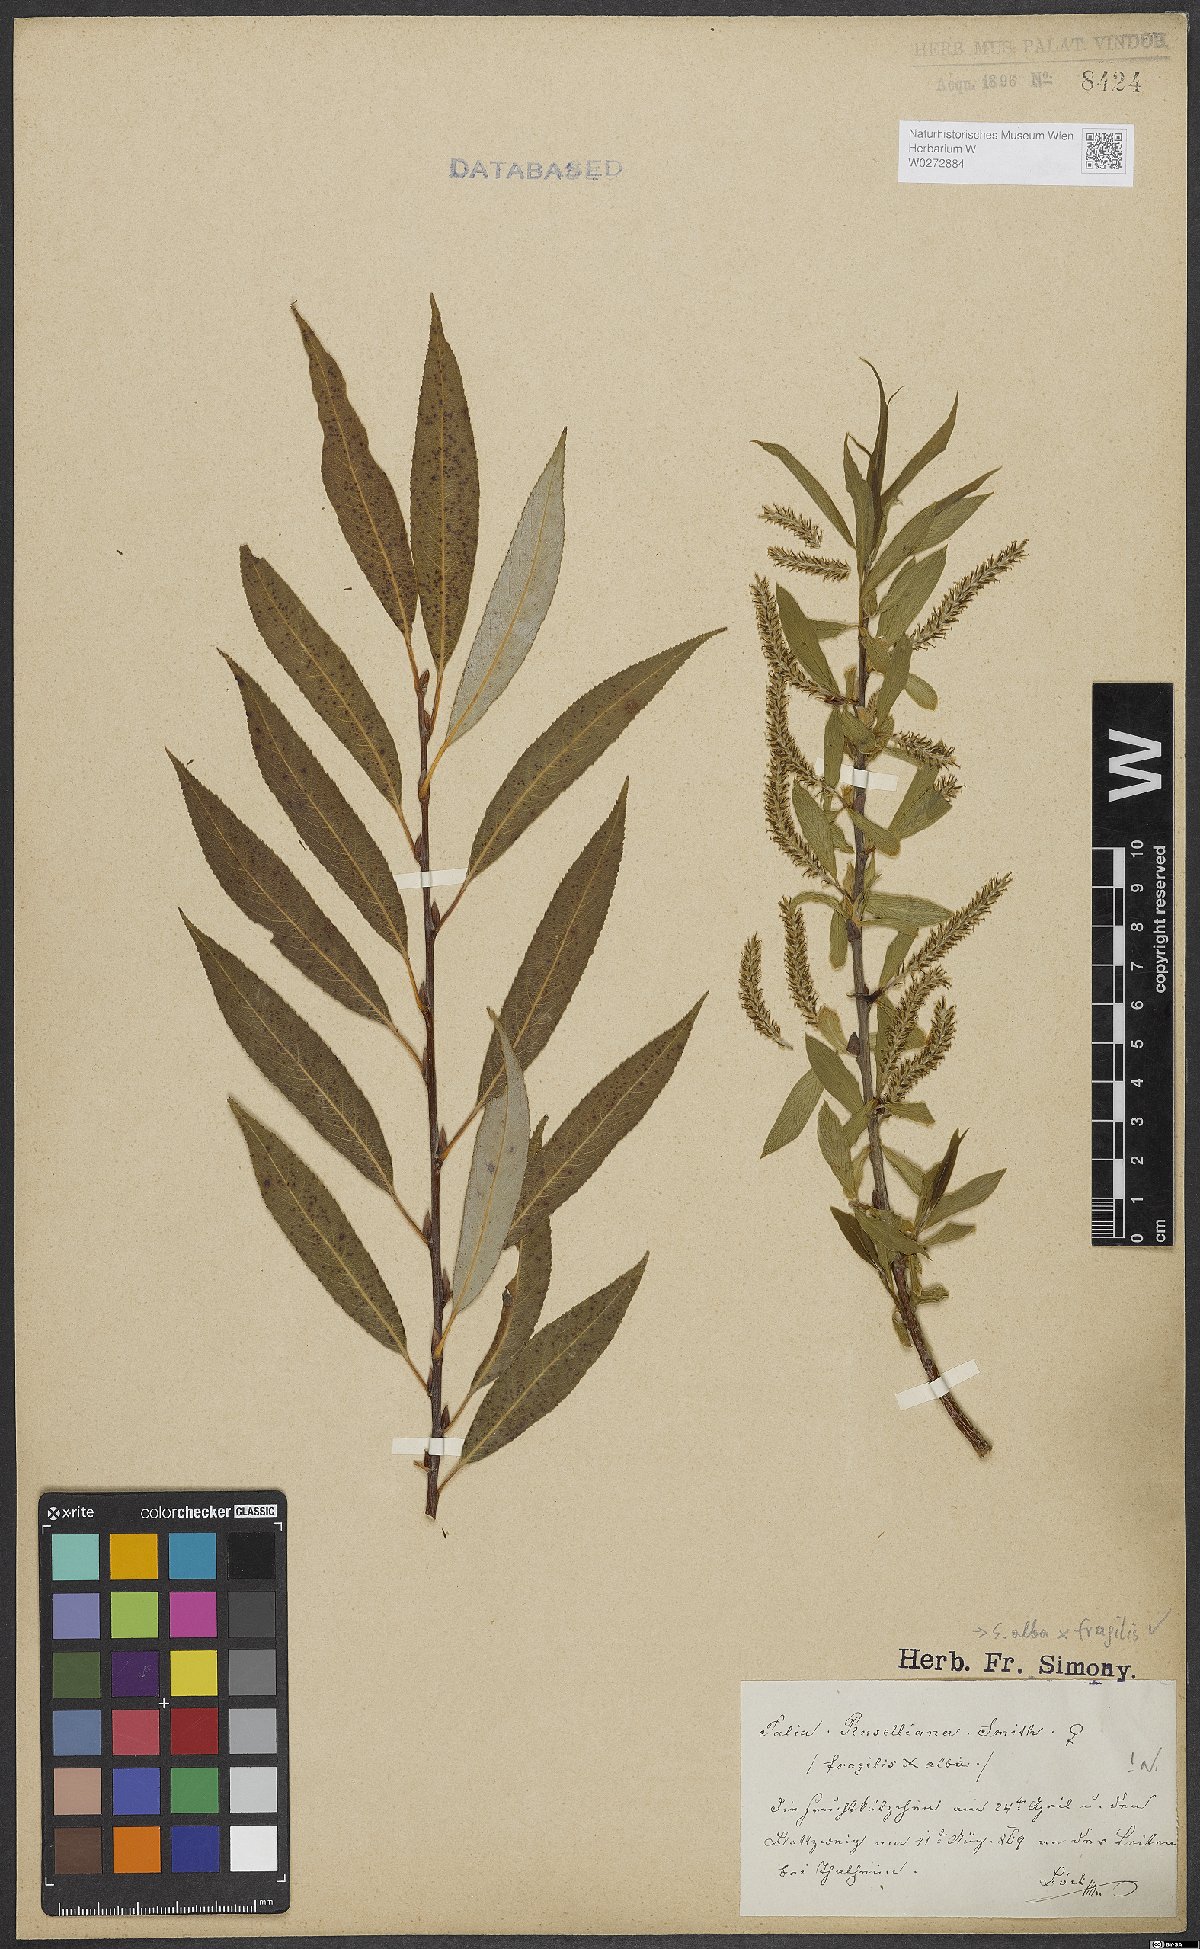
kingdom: Plantae
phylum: Tracheophyta
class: Magnoliopsida
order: Malpighiales
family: Salicaceae
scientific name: Salicaceae
